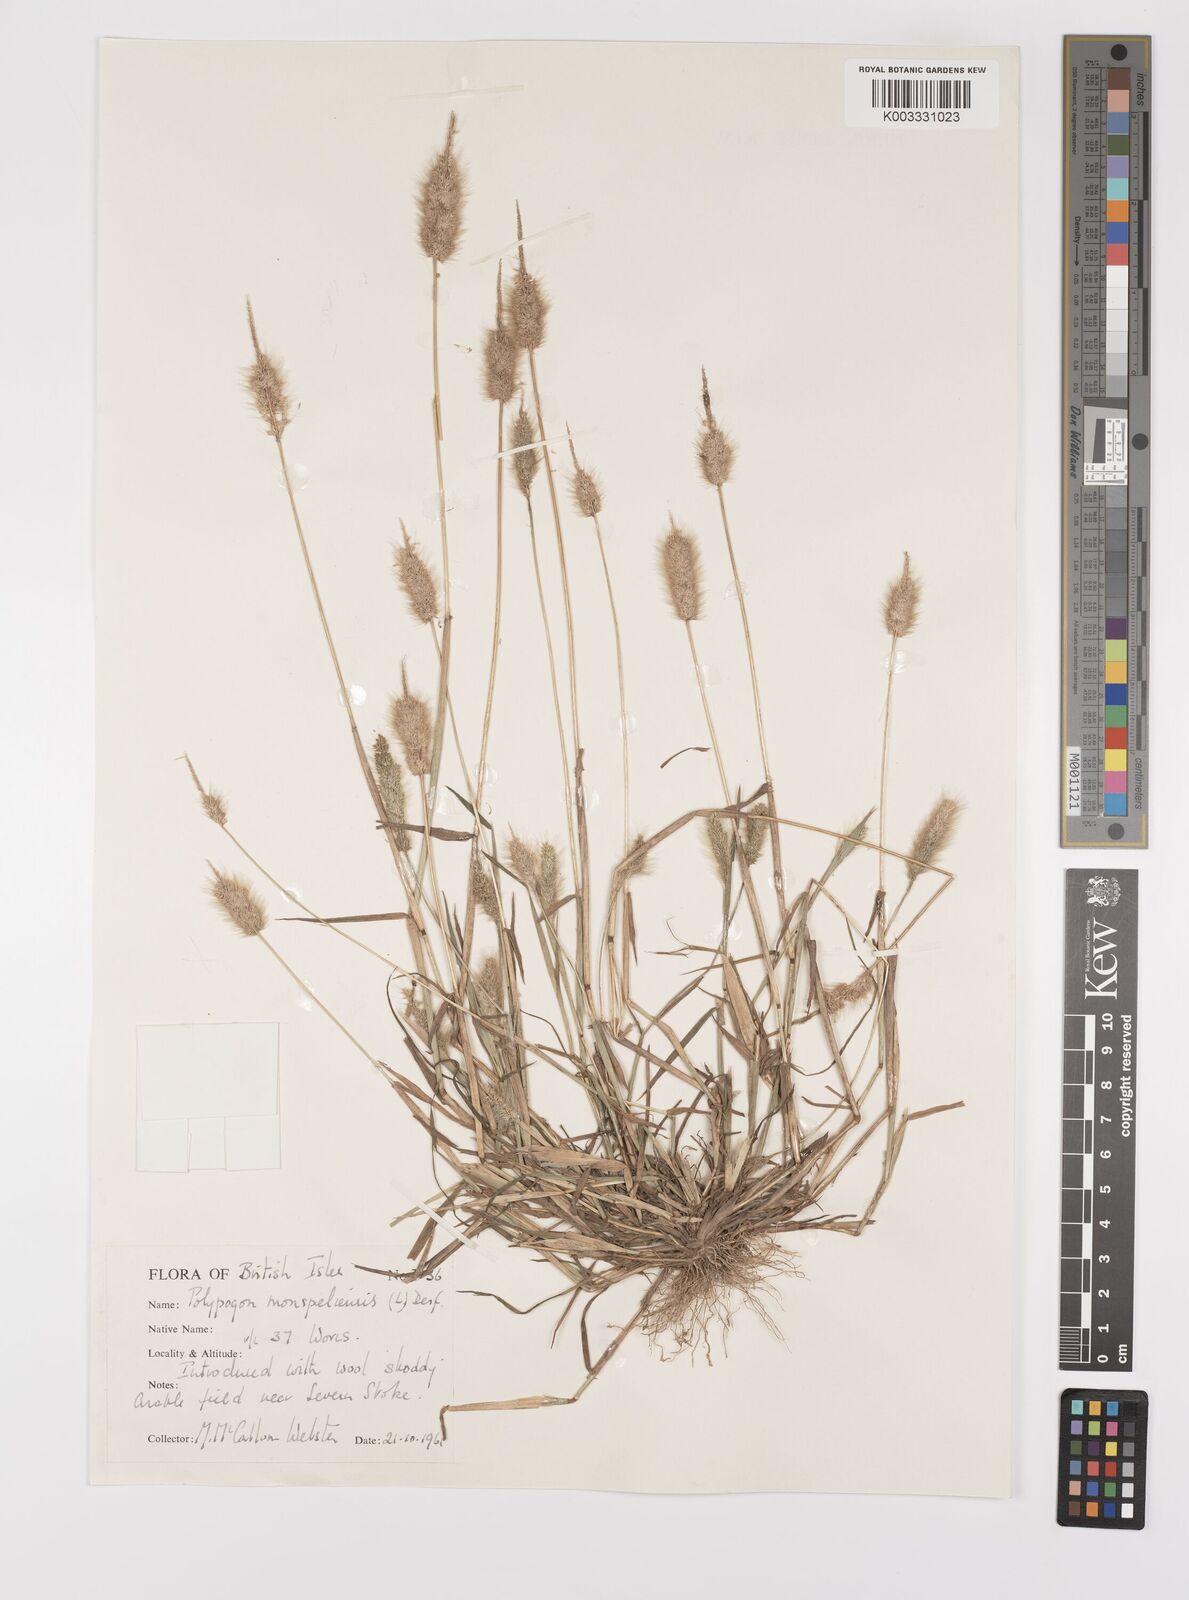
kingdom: Plantae
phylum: Tracheophyta
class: Liliopsida
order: Poales
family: Poaceae
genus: Polypogon
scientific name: Polypogon monspeliensis
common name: Annual rabbitsfoot grass
